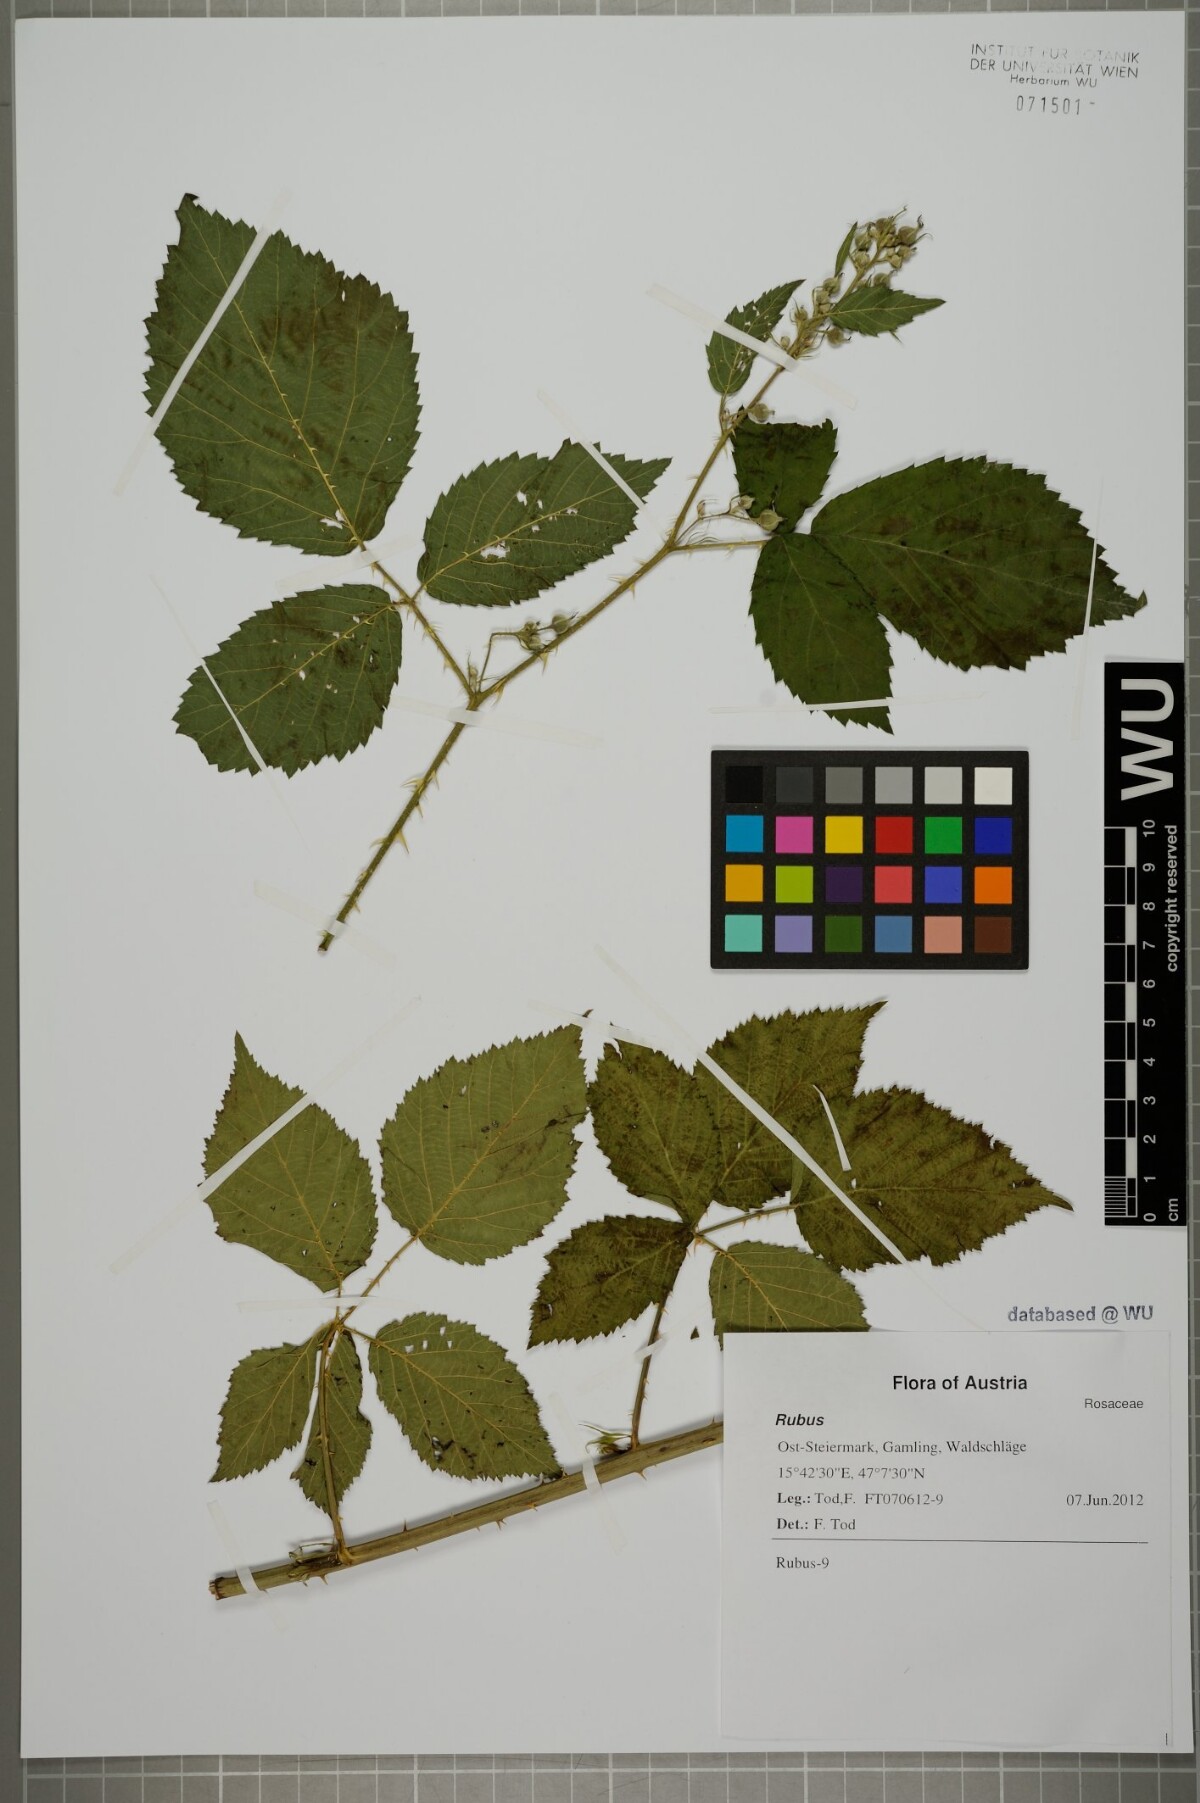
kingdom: Plantae
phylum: Tracheophyta
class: Magnoliopsida
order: Rosales
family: Rosaceae
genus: Rubus
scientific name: Rubus clusii
